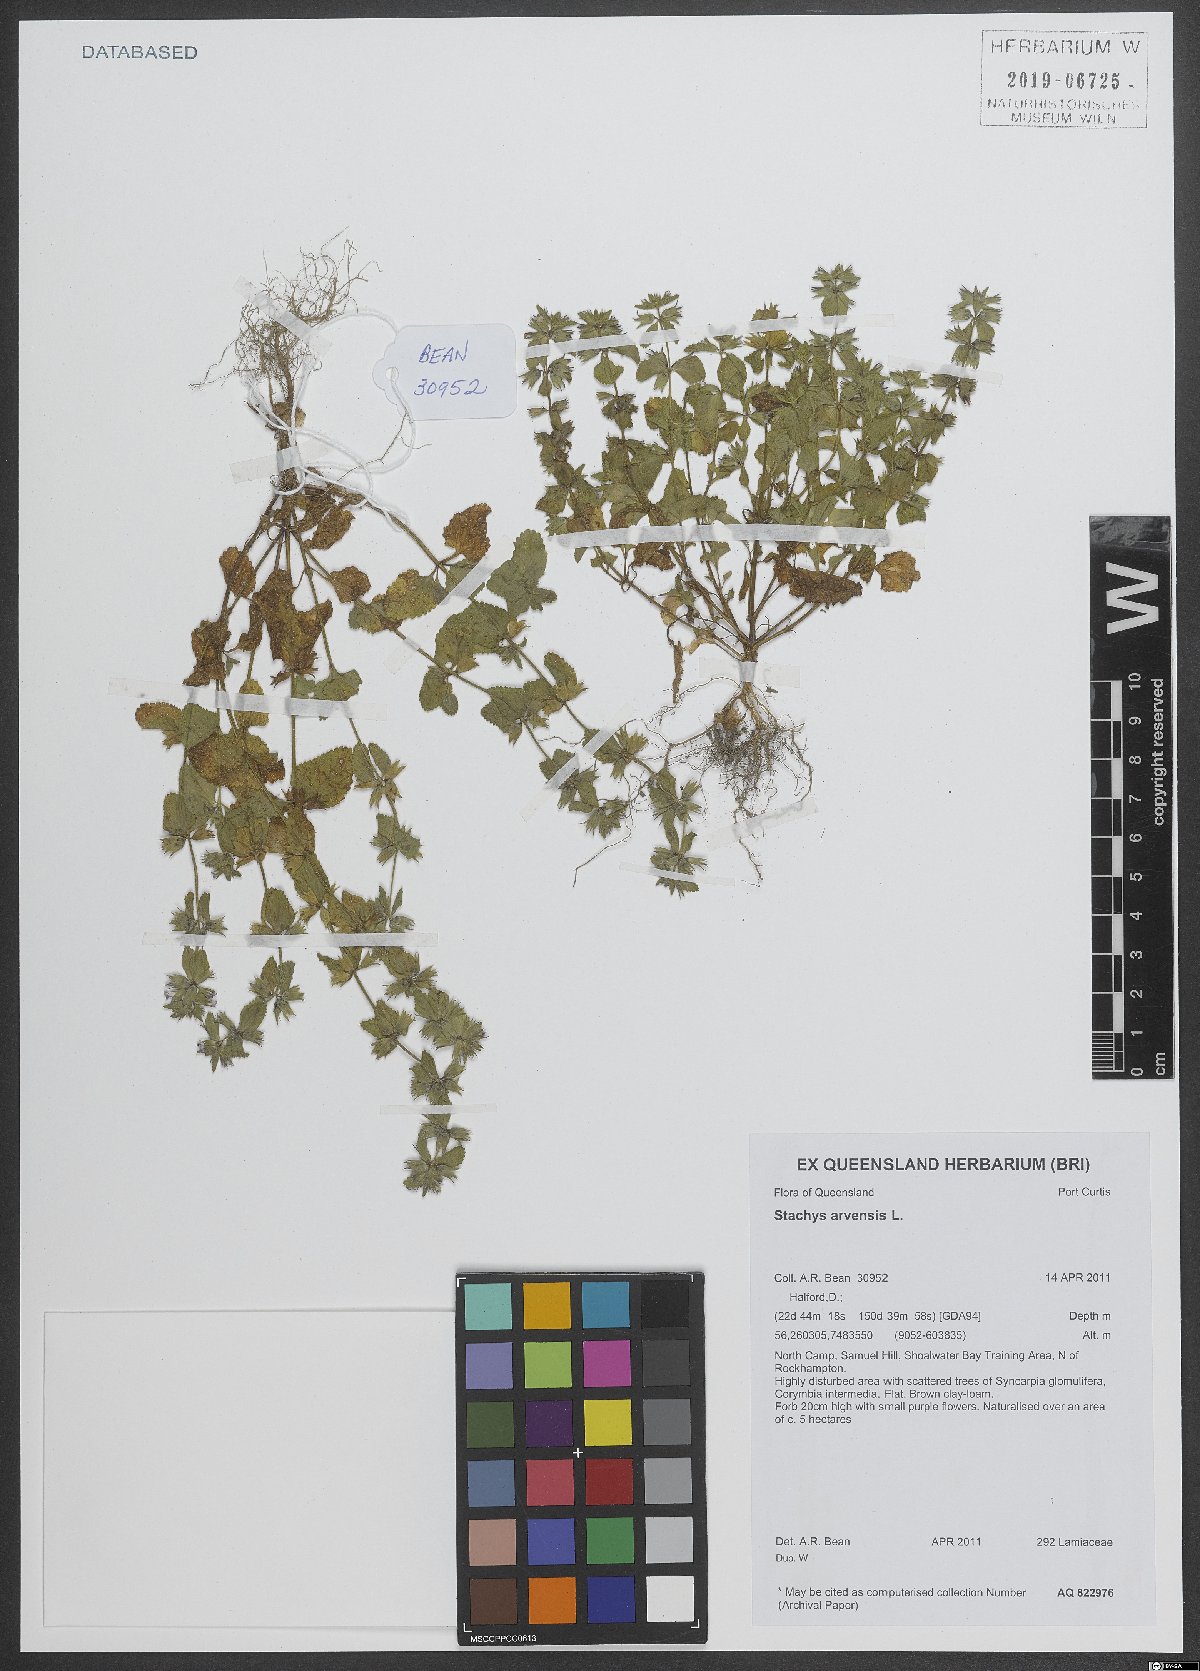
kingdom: Plantae
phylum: Tracheophyta
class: Magnoliopsida
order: Lamiales
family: Lamiaceae
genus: Stachys
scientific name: Stachys arvensis
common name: Field woundwort
